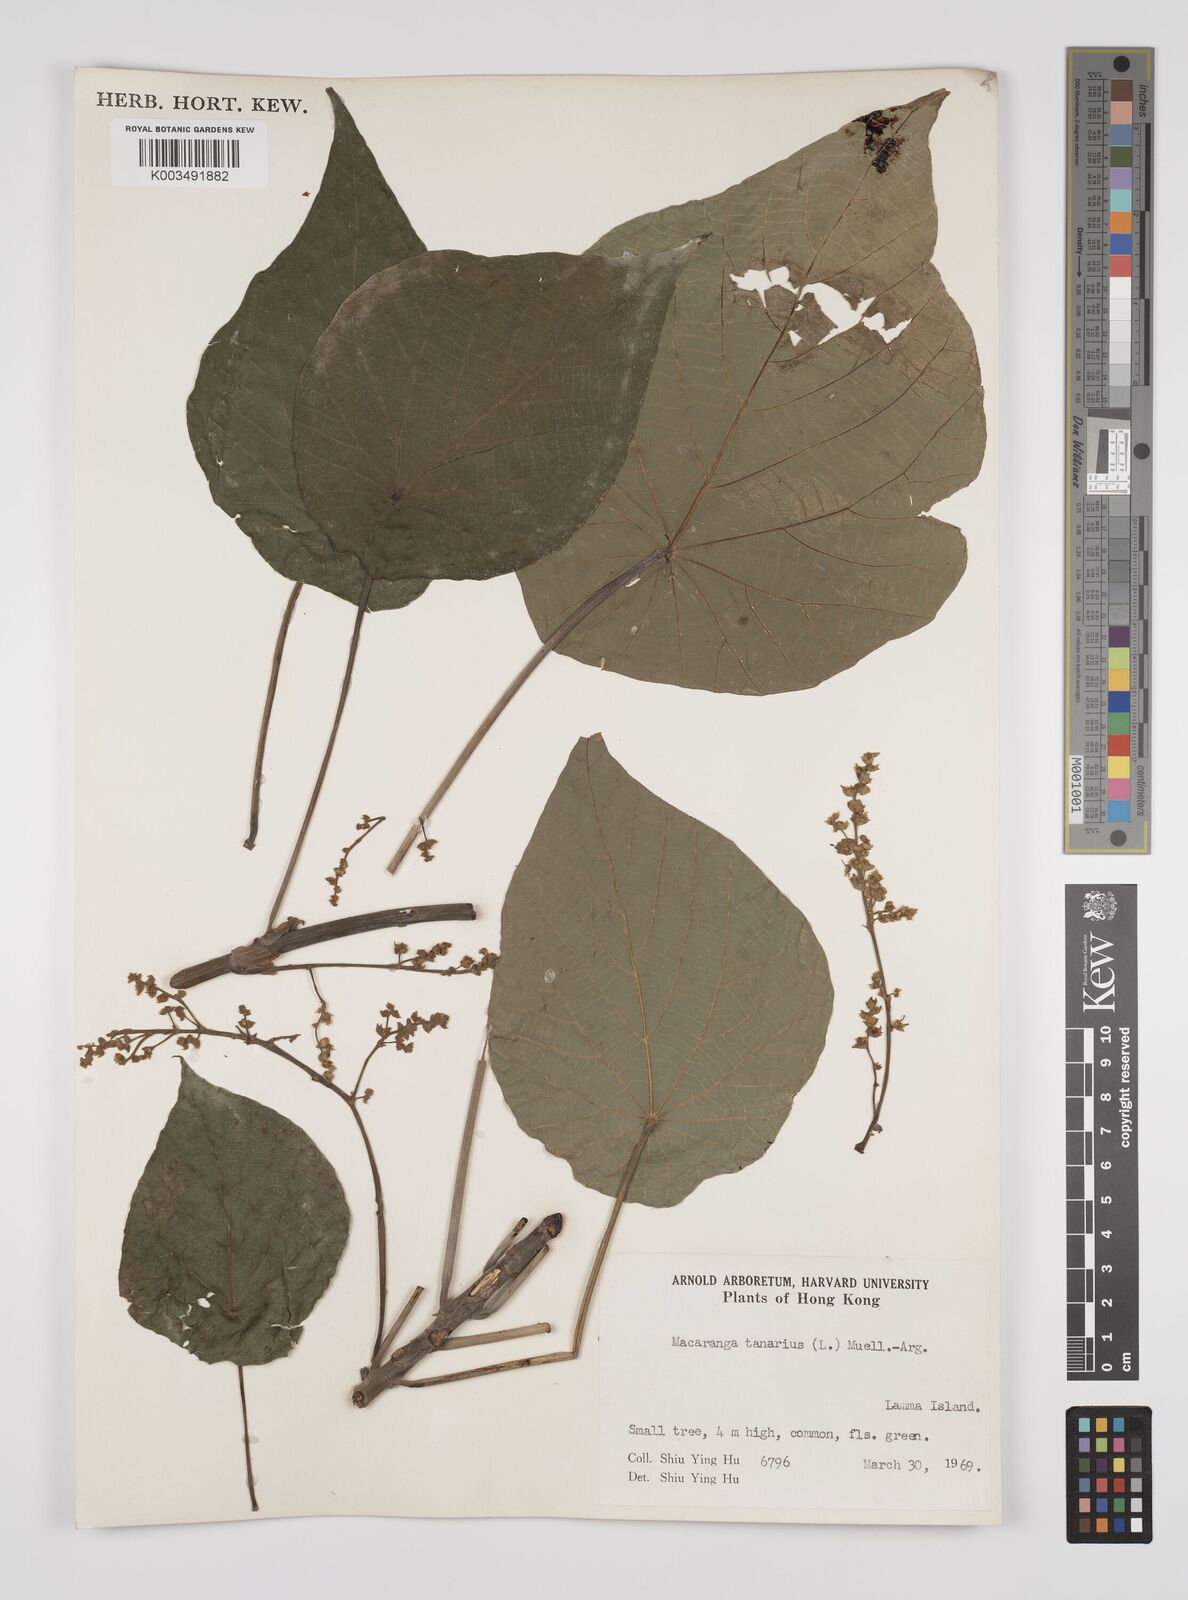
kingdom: Plantae
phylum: Tracheophyta
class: Magnoliopsida
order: Malpighiales
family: Euphorbiaceae
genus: Macaranga
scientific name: Macaranga tanarius
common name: Parasol leaf tree
